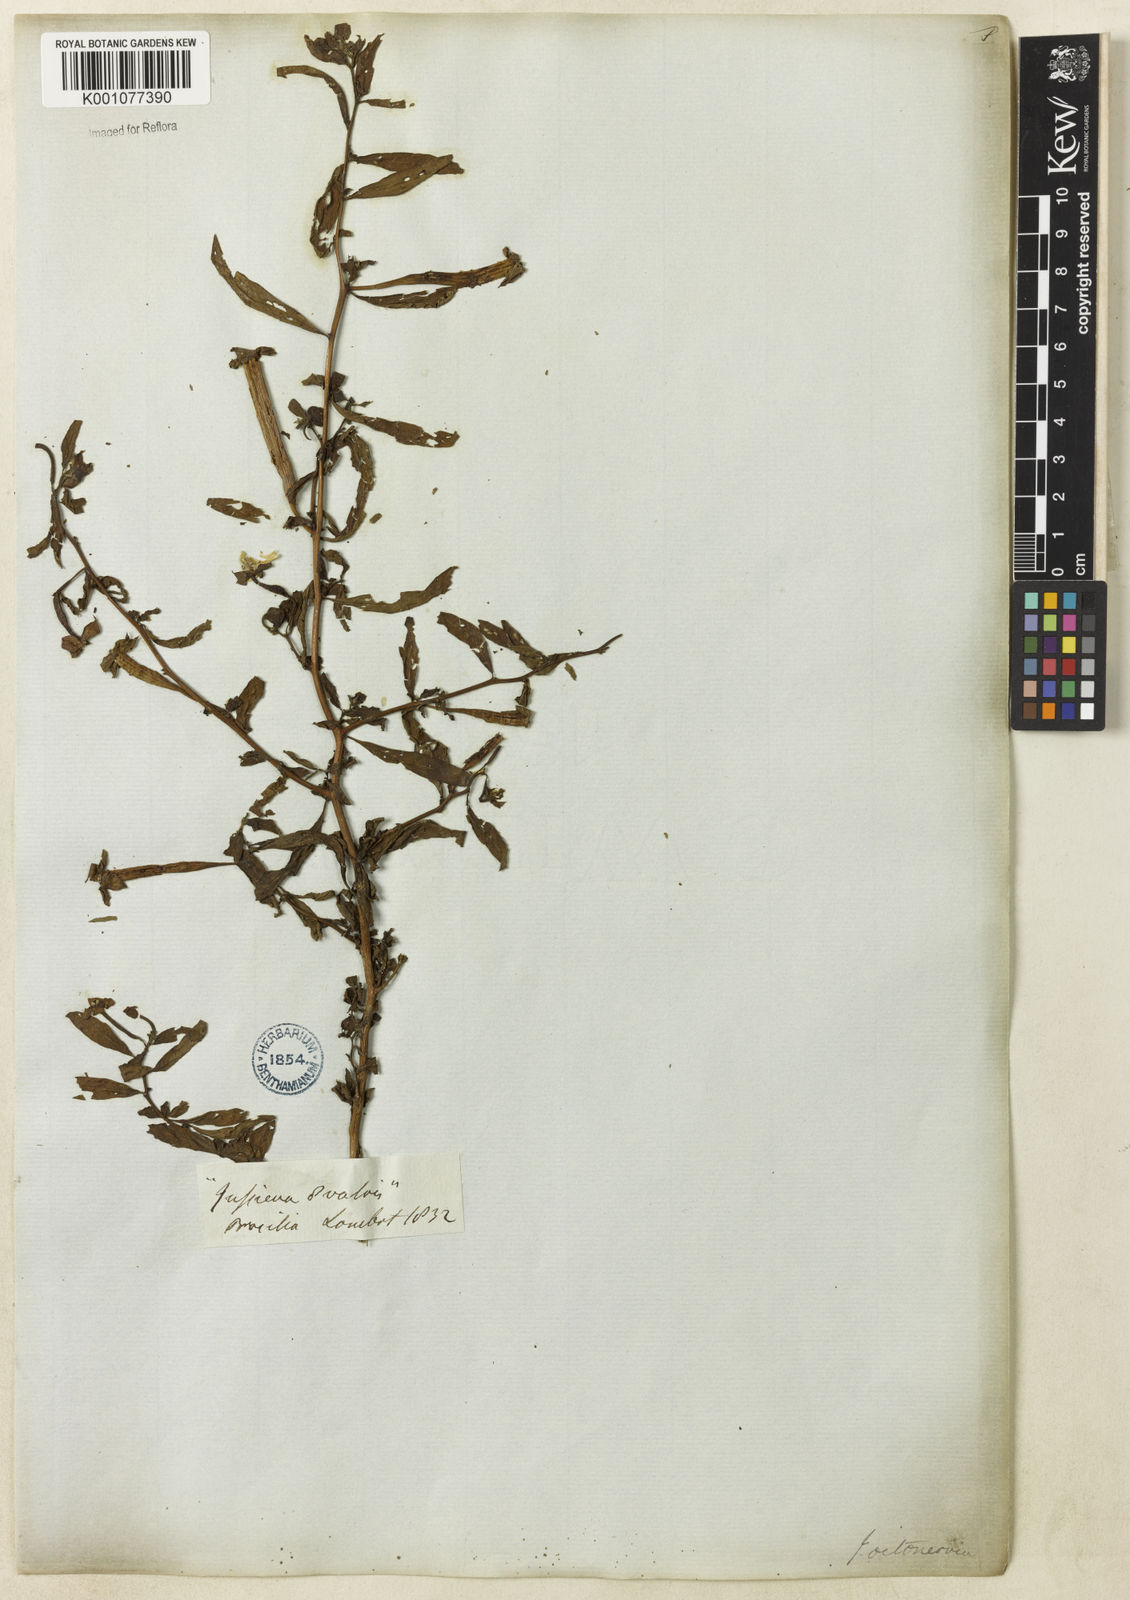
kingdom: Plantae
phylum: Tracheophyta
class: Magnoliopsida
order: Myrtales
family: Onagraceae
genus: Ludwigia
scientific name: Ludwigia octovalvis
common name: Water-primrose
